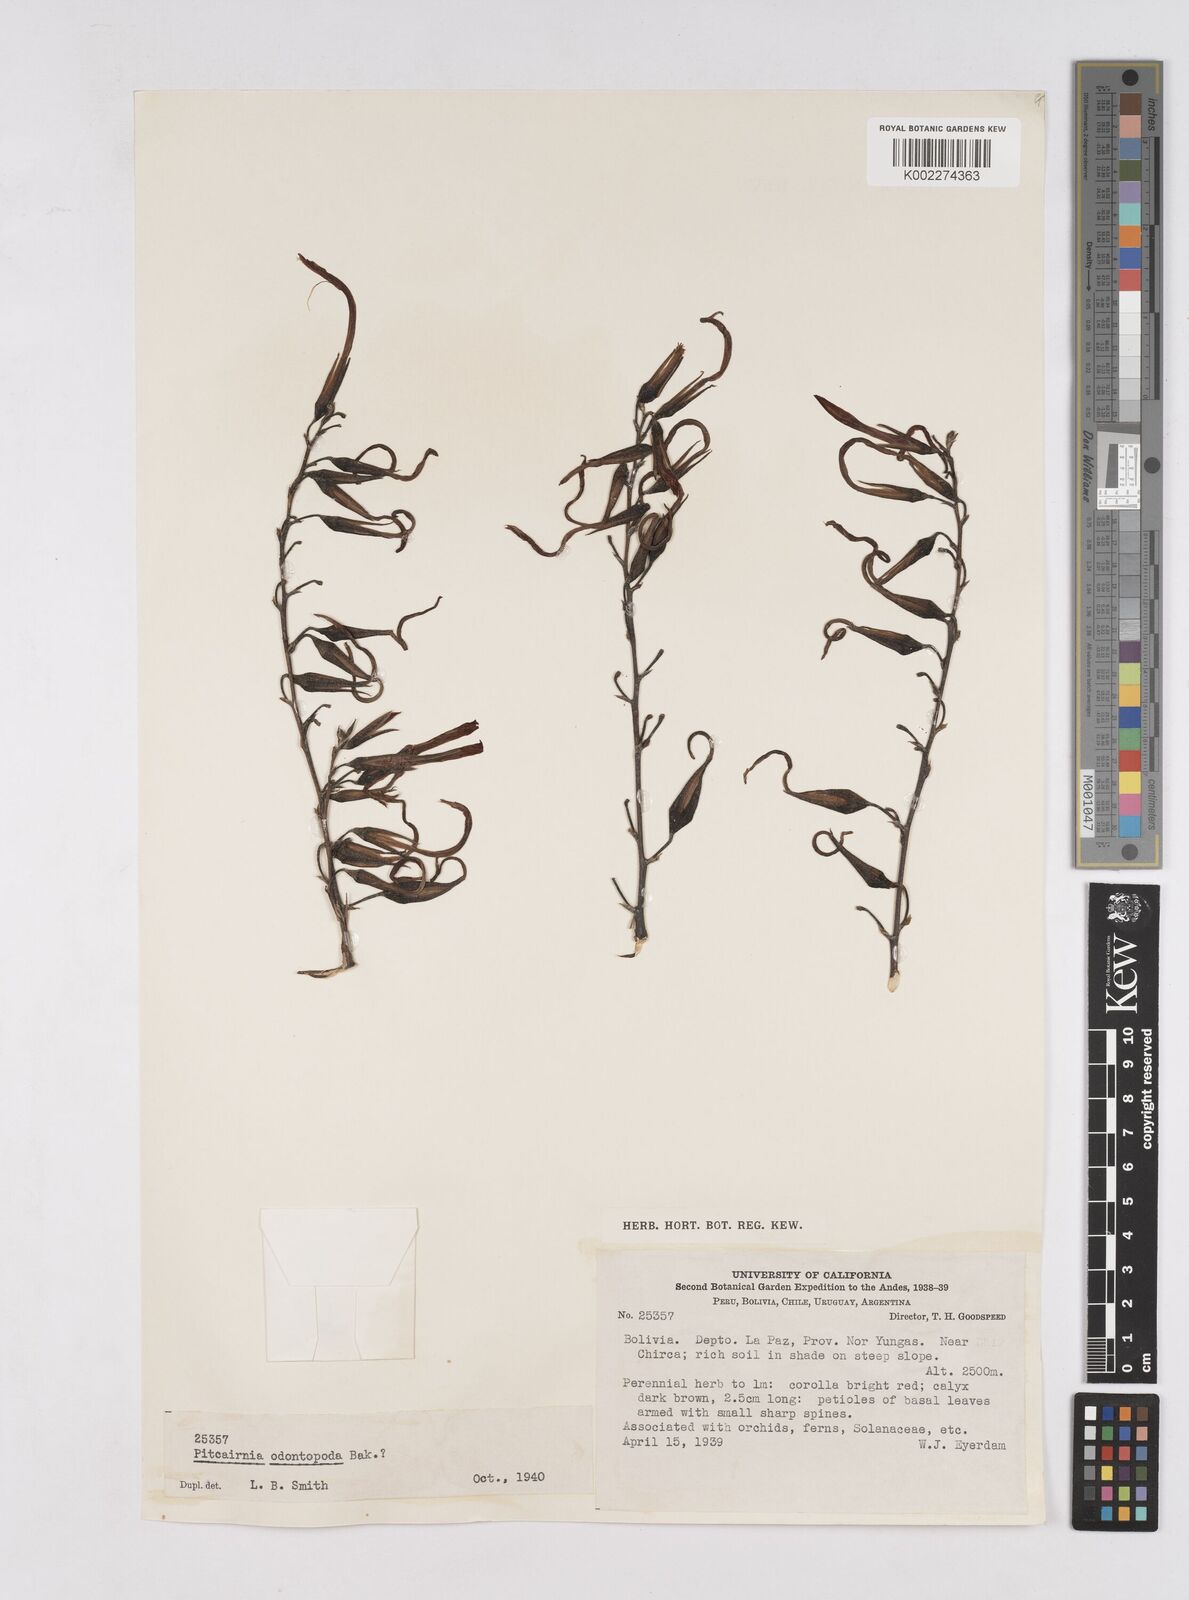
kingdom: Plantae
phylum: Tracheophyta
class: Liliopsida
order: Poales
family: Bromeliaceae
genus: Pitcairnia
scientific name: Pitcairnia odontopoda
